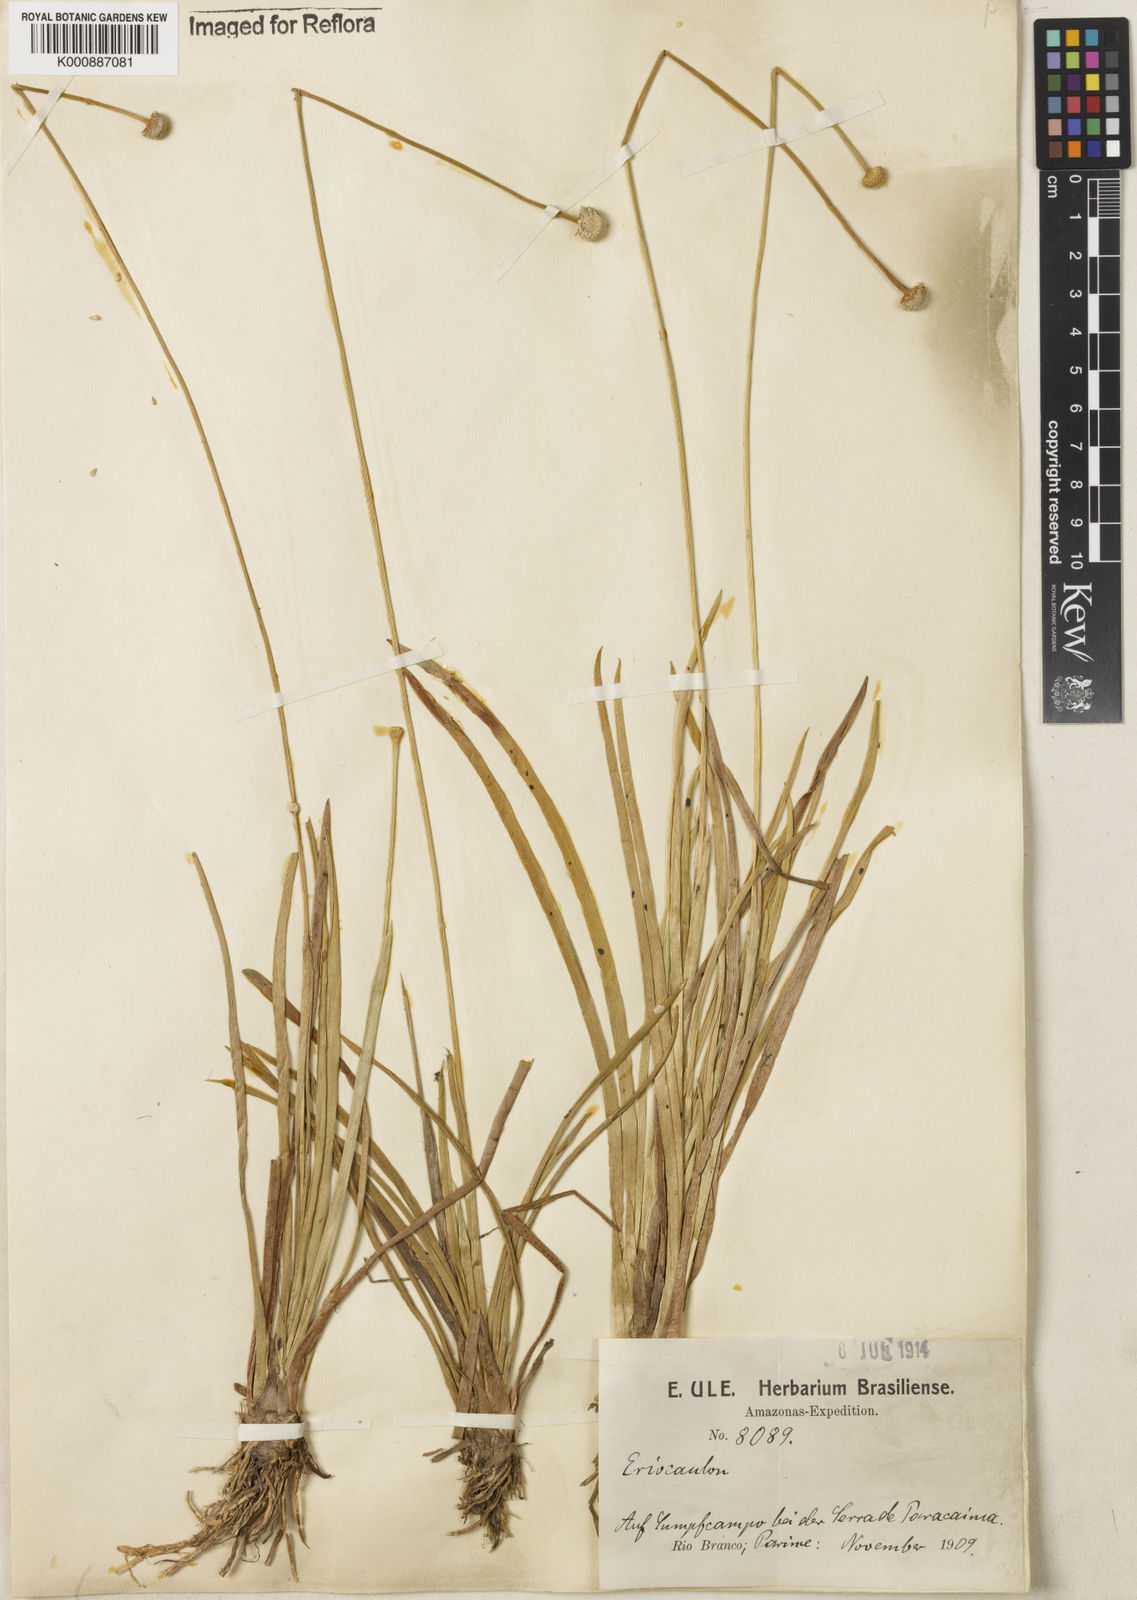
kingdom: Plantae
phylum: Tracheophyta
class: Liliopsida
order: Poales
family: Eriocaulaceae
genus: Eriocaulon
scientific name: Eriocaulon humboldtii
